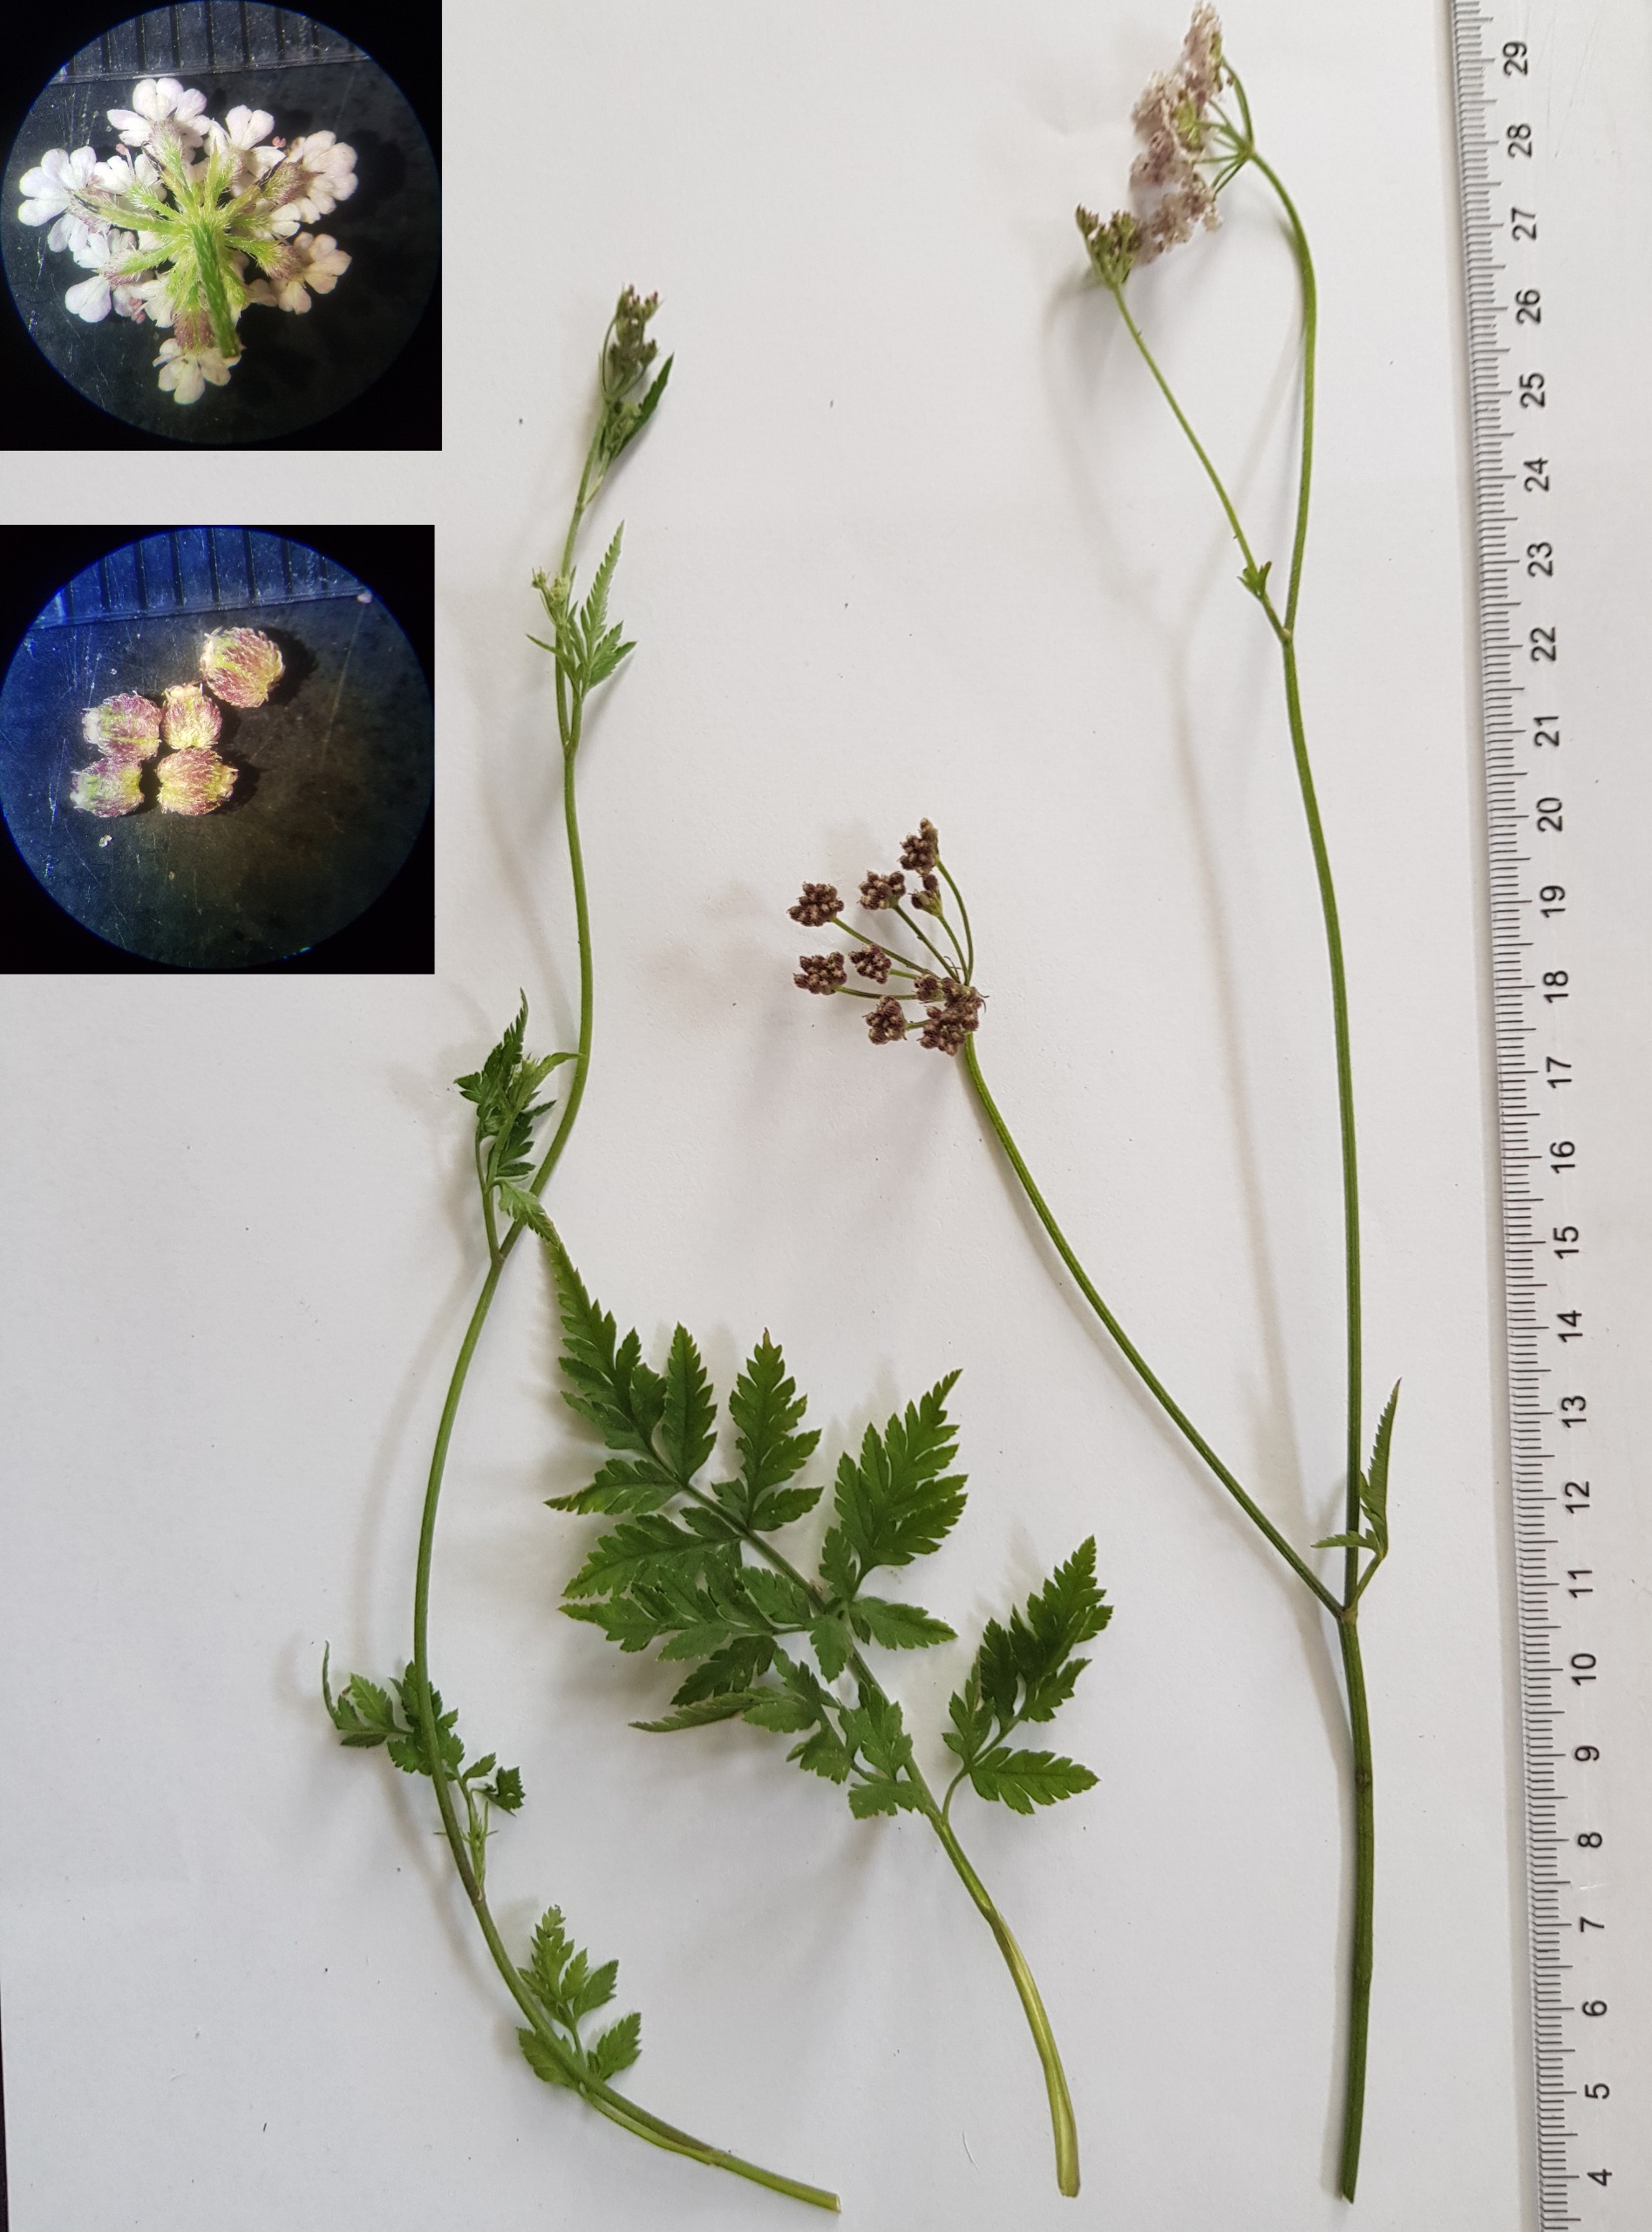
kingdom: Plantae
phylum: Tracheophyta
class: Magnoliopsida
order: Apiales
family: Apiaceae
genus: Torilis
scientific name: Torilis japonica
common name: Hvas randfrø
